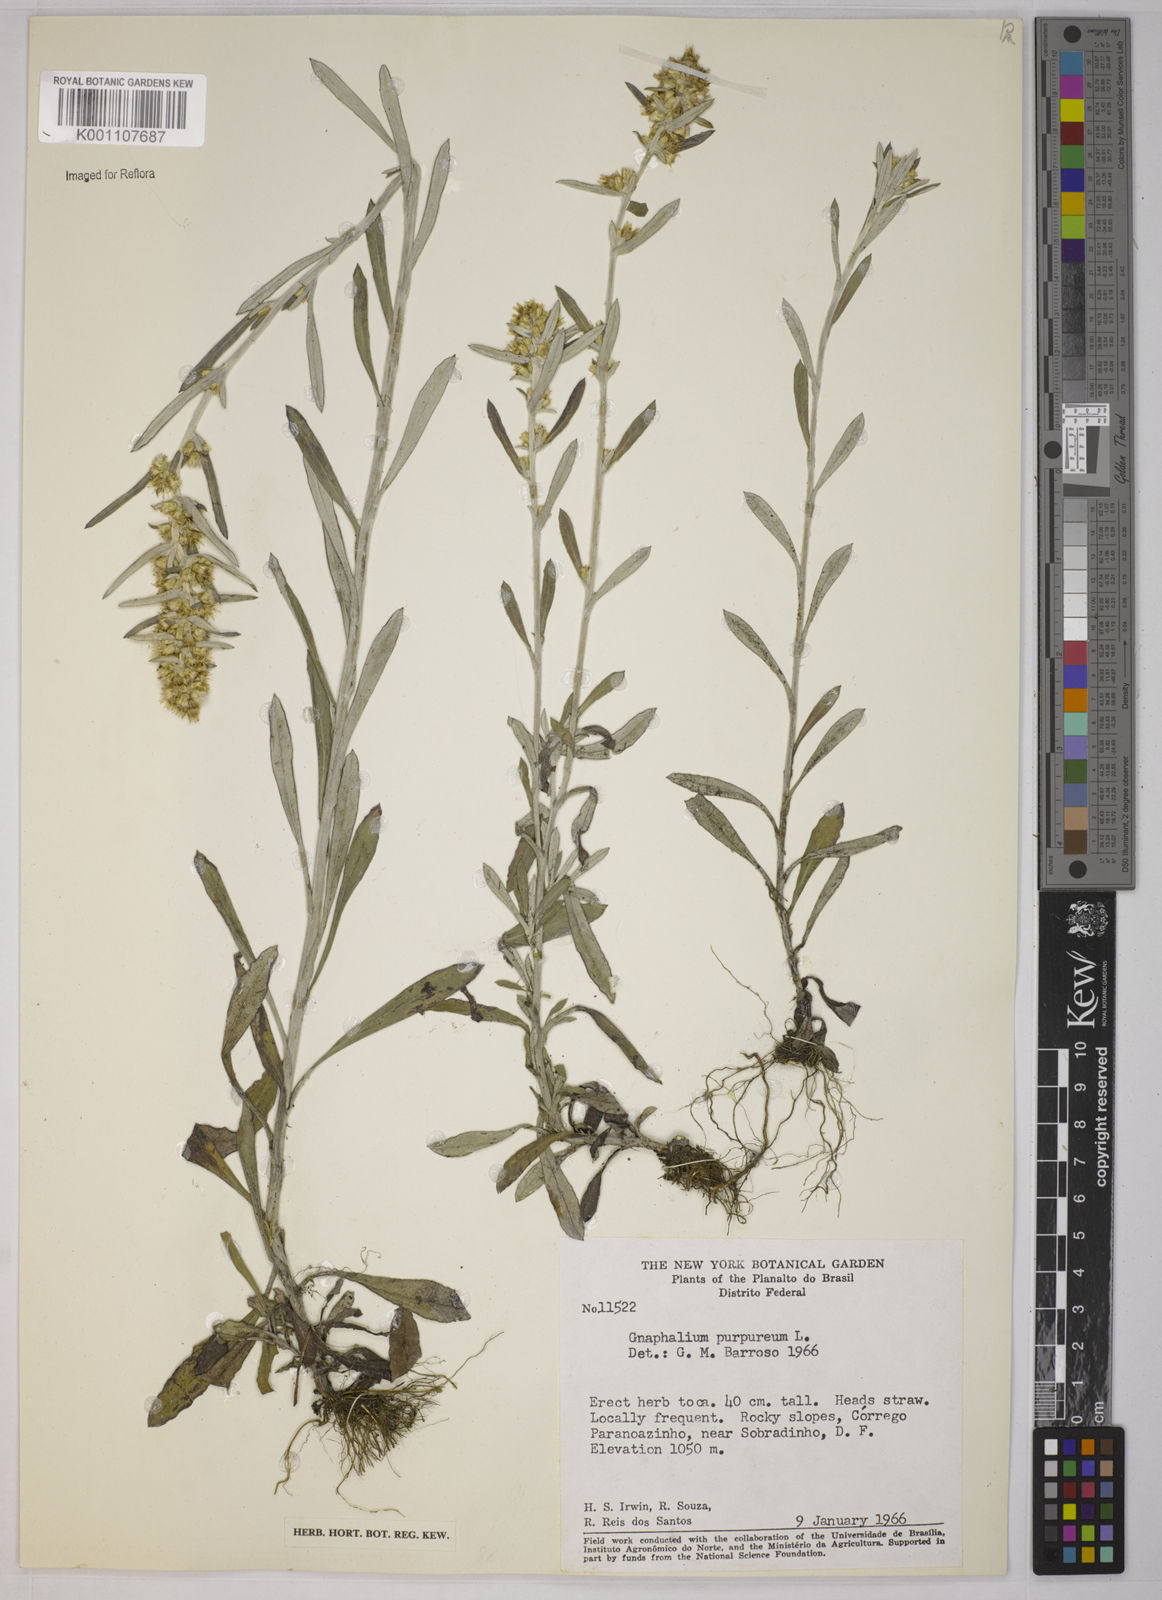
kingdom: Plantae
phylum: Tracheophyta
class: Magnoliopsida
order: Asterales
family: Asteraceae
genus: Gamochaeta
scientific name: Gamochaeta purpurea
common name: Purple cudweed
